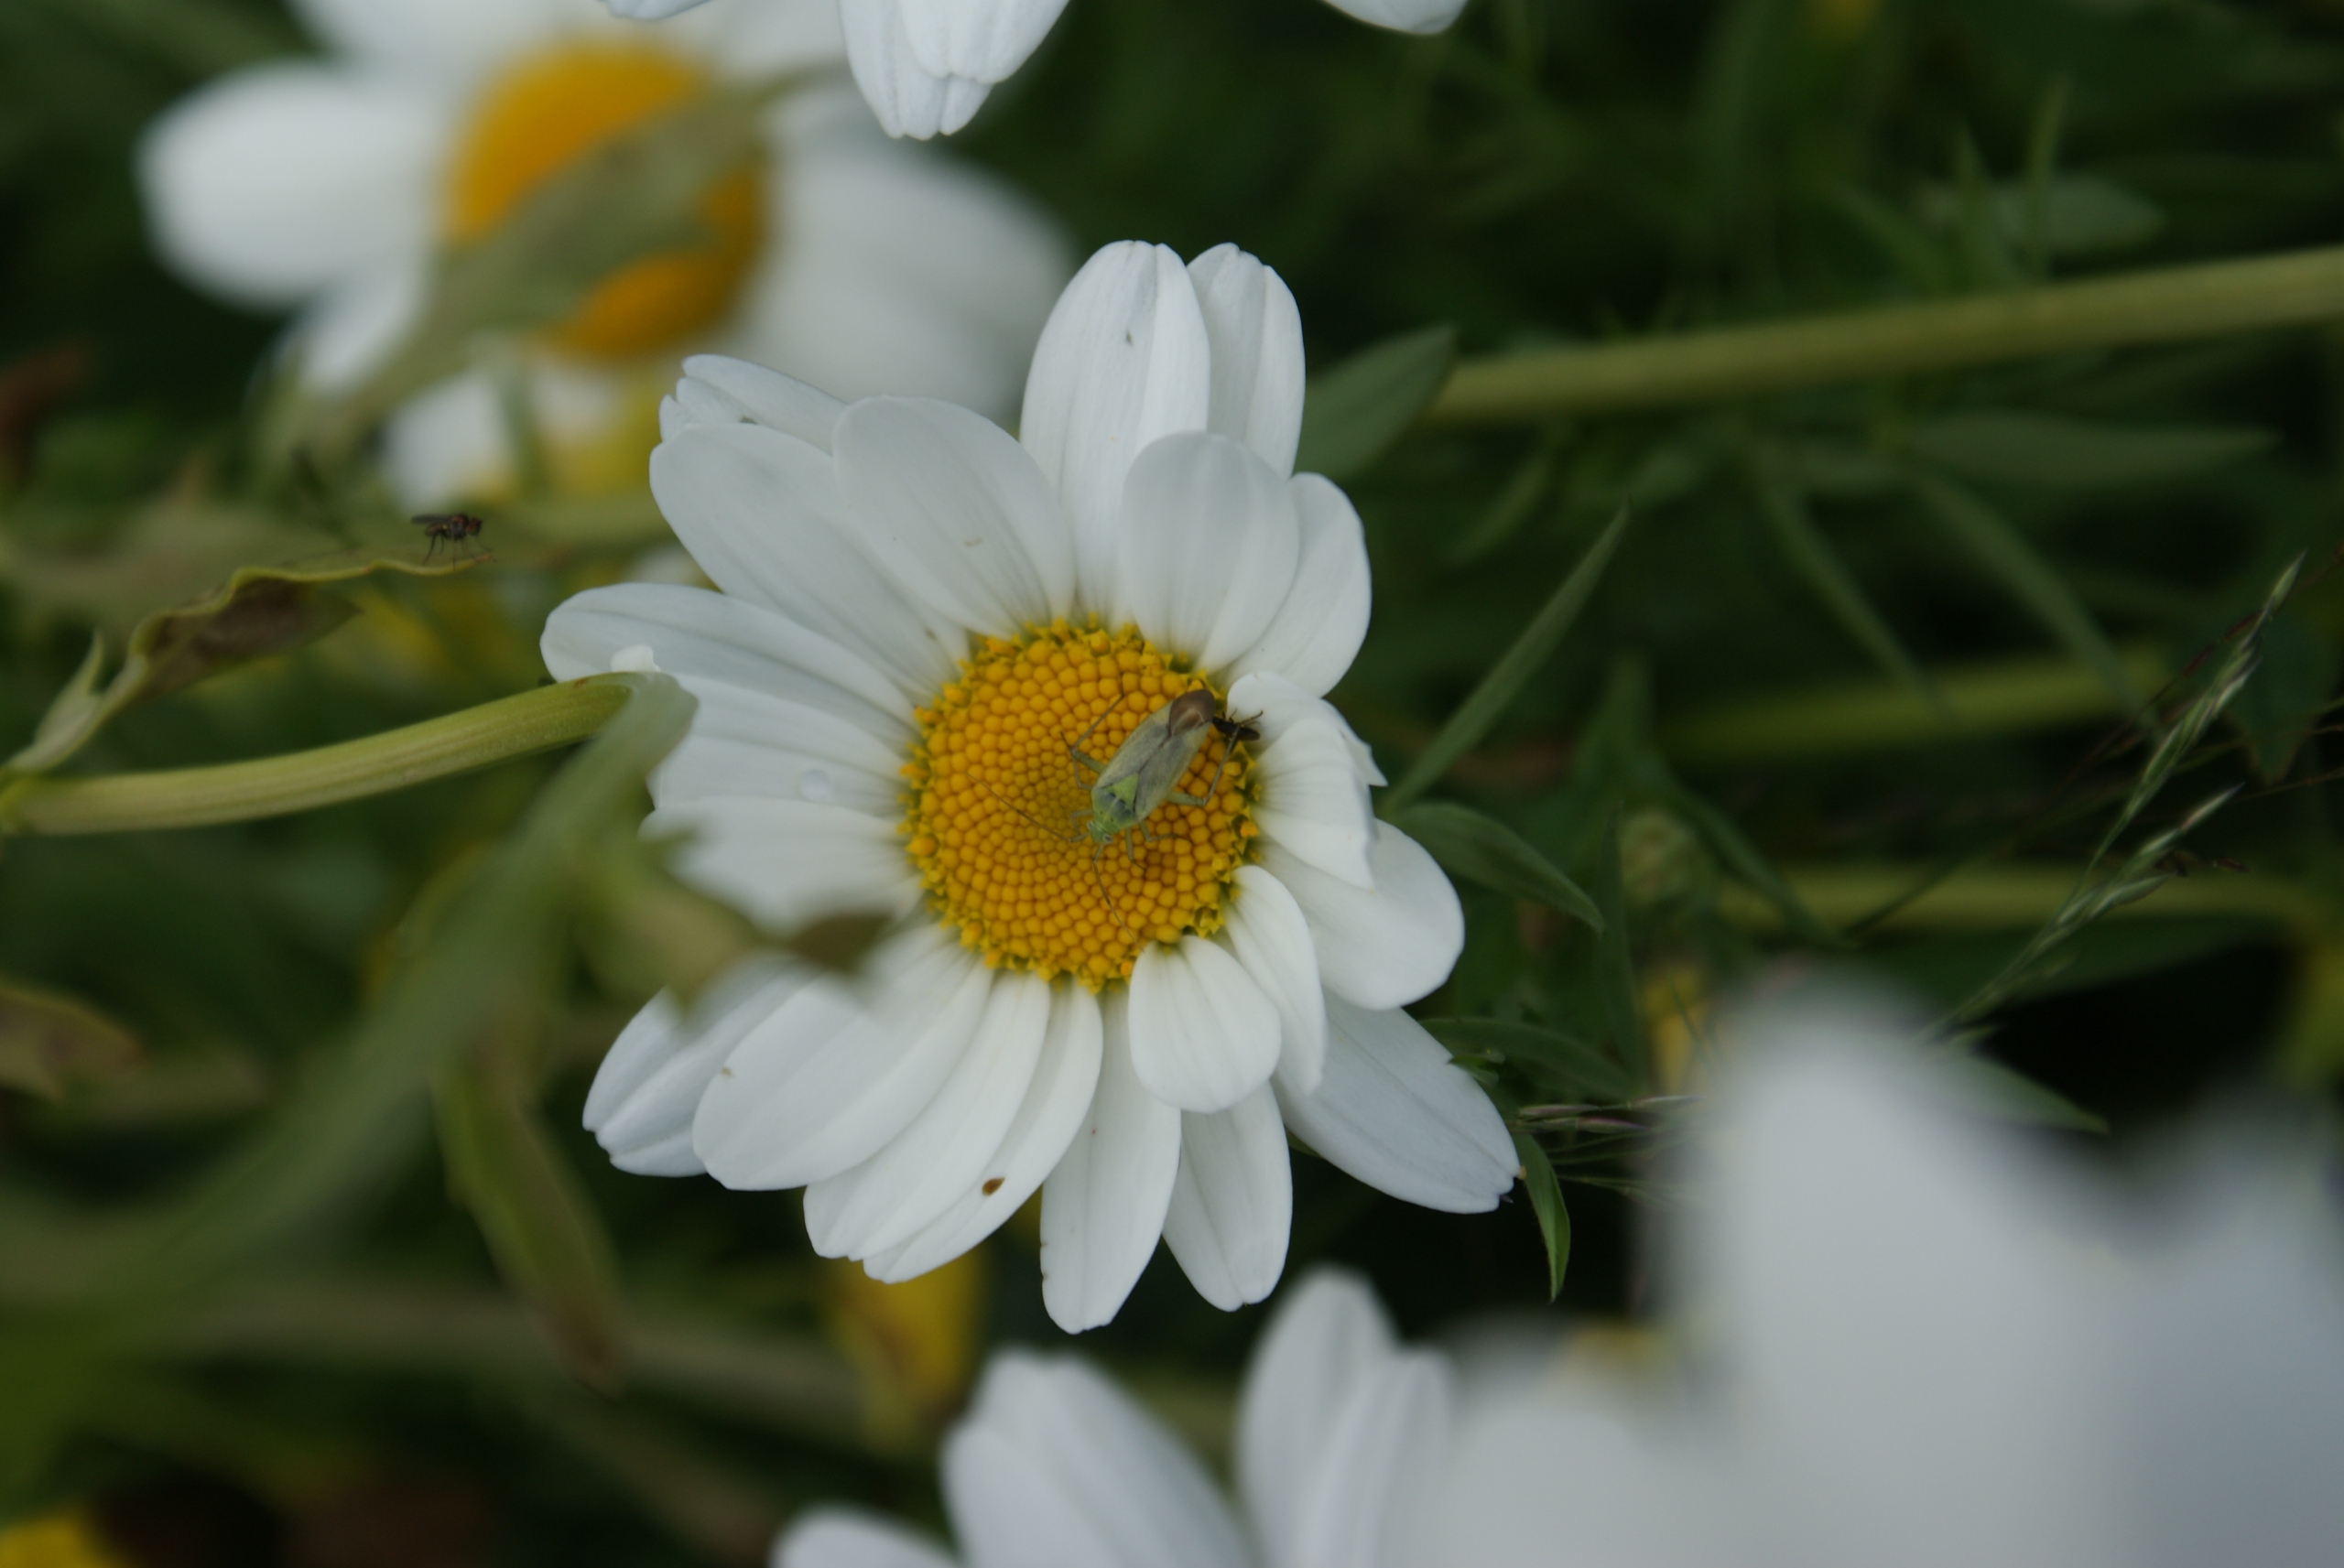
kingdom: Animalia
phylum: Arthropoda
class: Insecta
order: Hemiptera
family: Miridae
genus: Closterotomus
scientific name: Closterotomus norvegicus
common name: Toplettet bederoetæge
